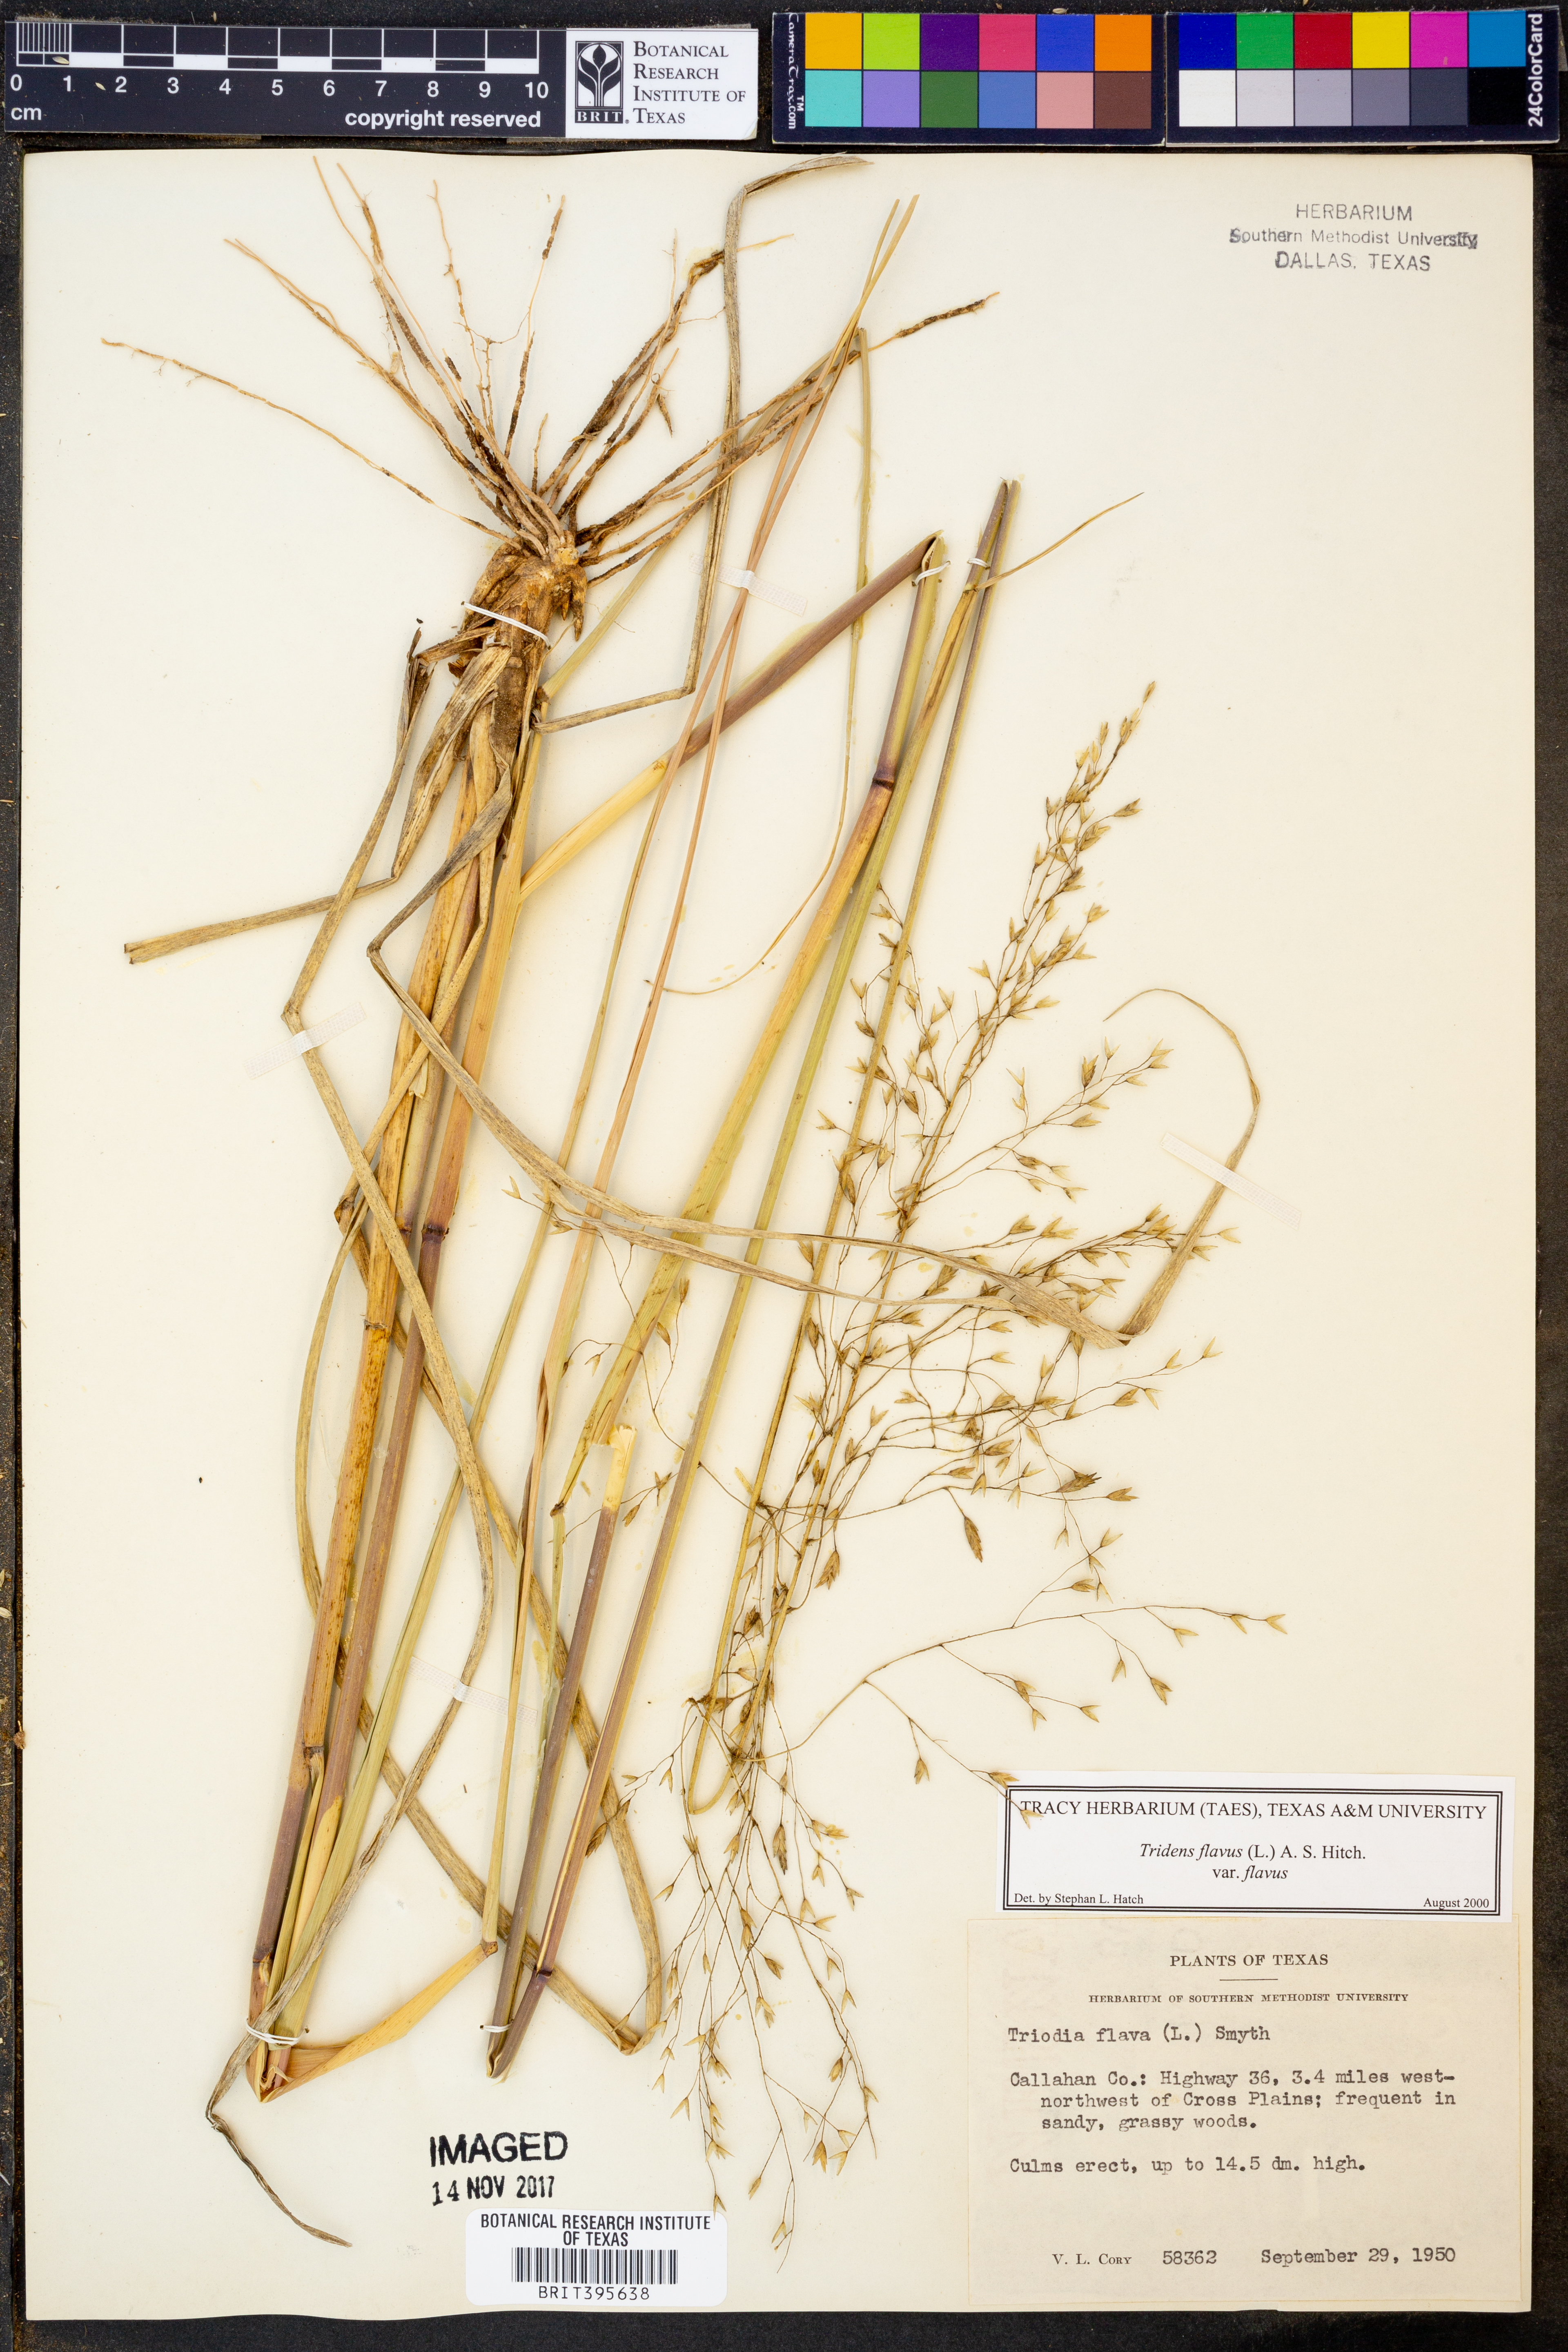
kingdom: Plantae
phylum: Tracheophyta
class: Liliopsida
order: Poales
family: Poaceae
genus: Tridens
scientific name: Tridens flavus
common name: Purpletop
